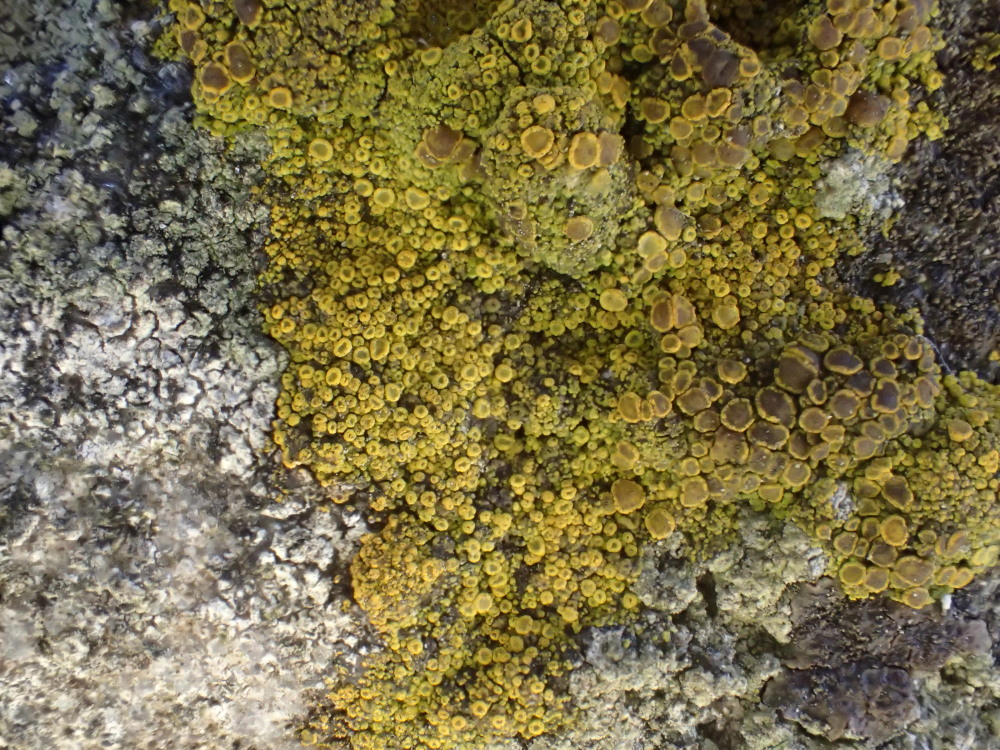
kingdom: Fungi
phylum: Ascomycota
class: Candelariomycetes
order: Candelariales
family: Candelariaceae
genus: Candelariella
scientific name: Candelariella vitellina
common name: almindelig æggeblommelav
